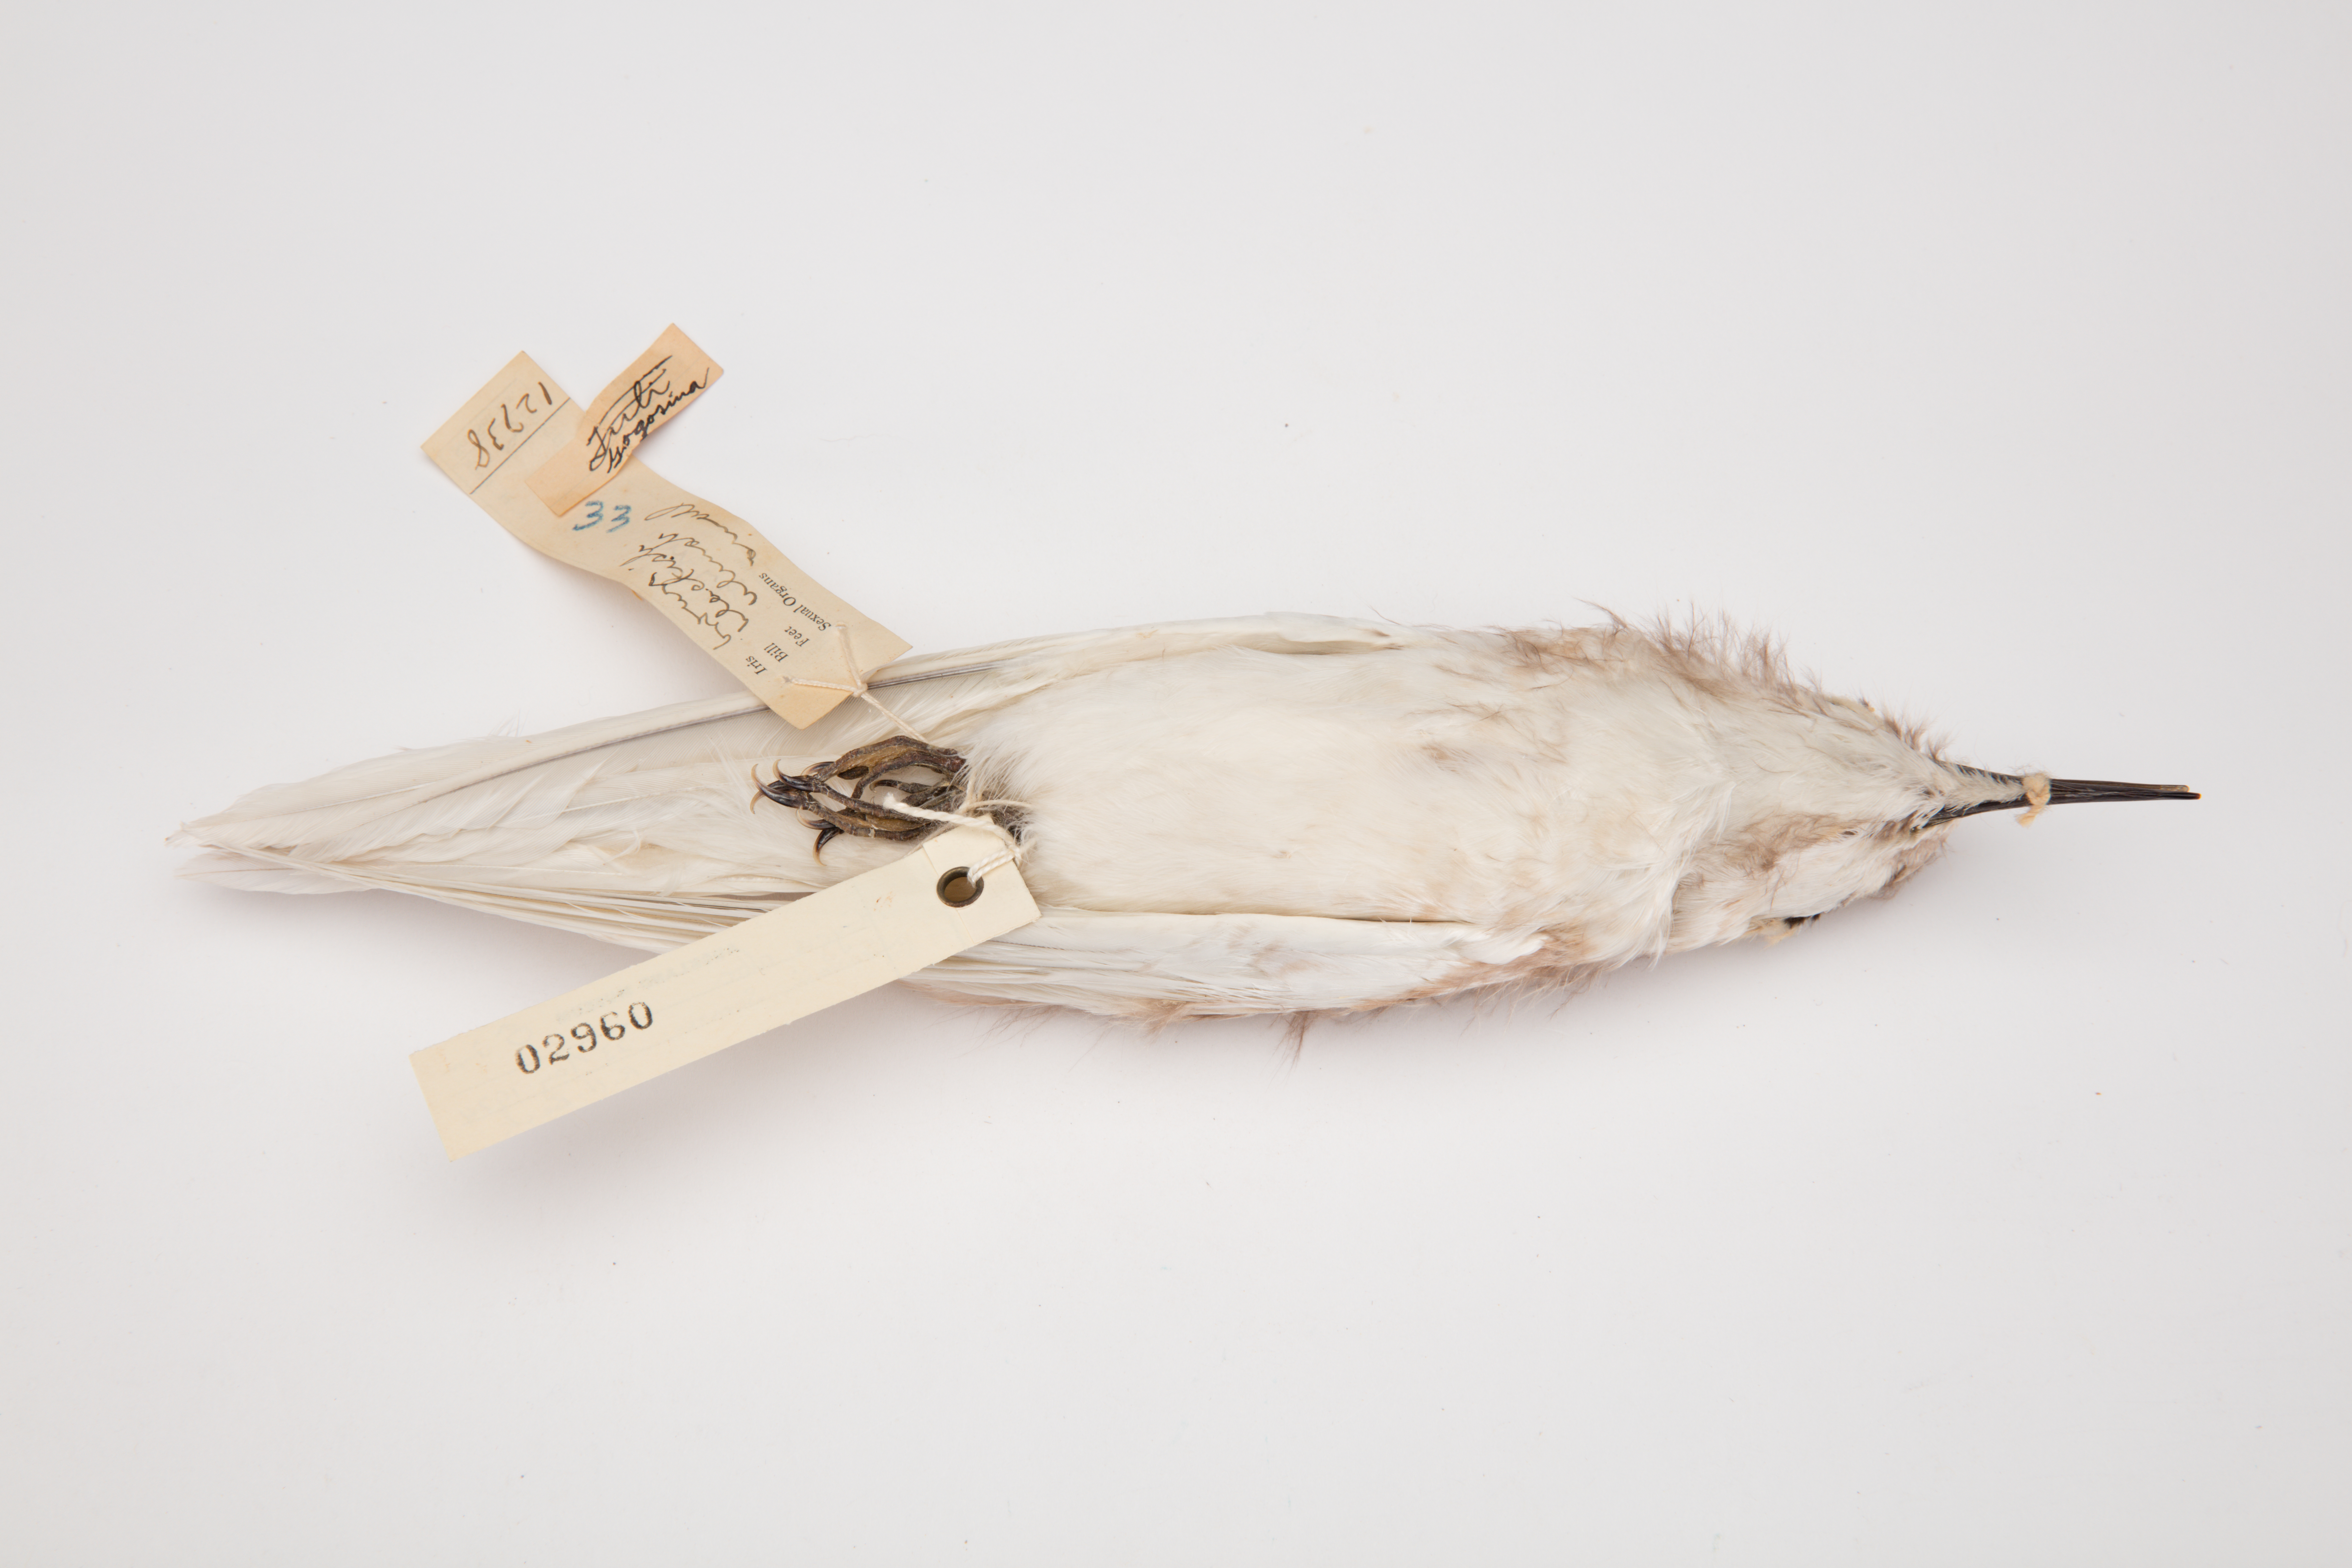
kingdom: Animalia
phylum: Chordata
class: Aves
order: Charadriiformes
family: Laridae
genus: Gygis
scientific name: Gygis alba
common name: White tern
